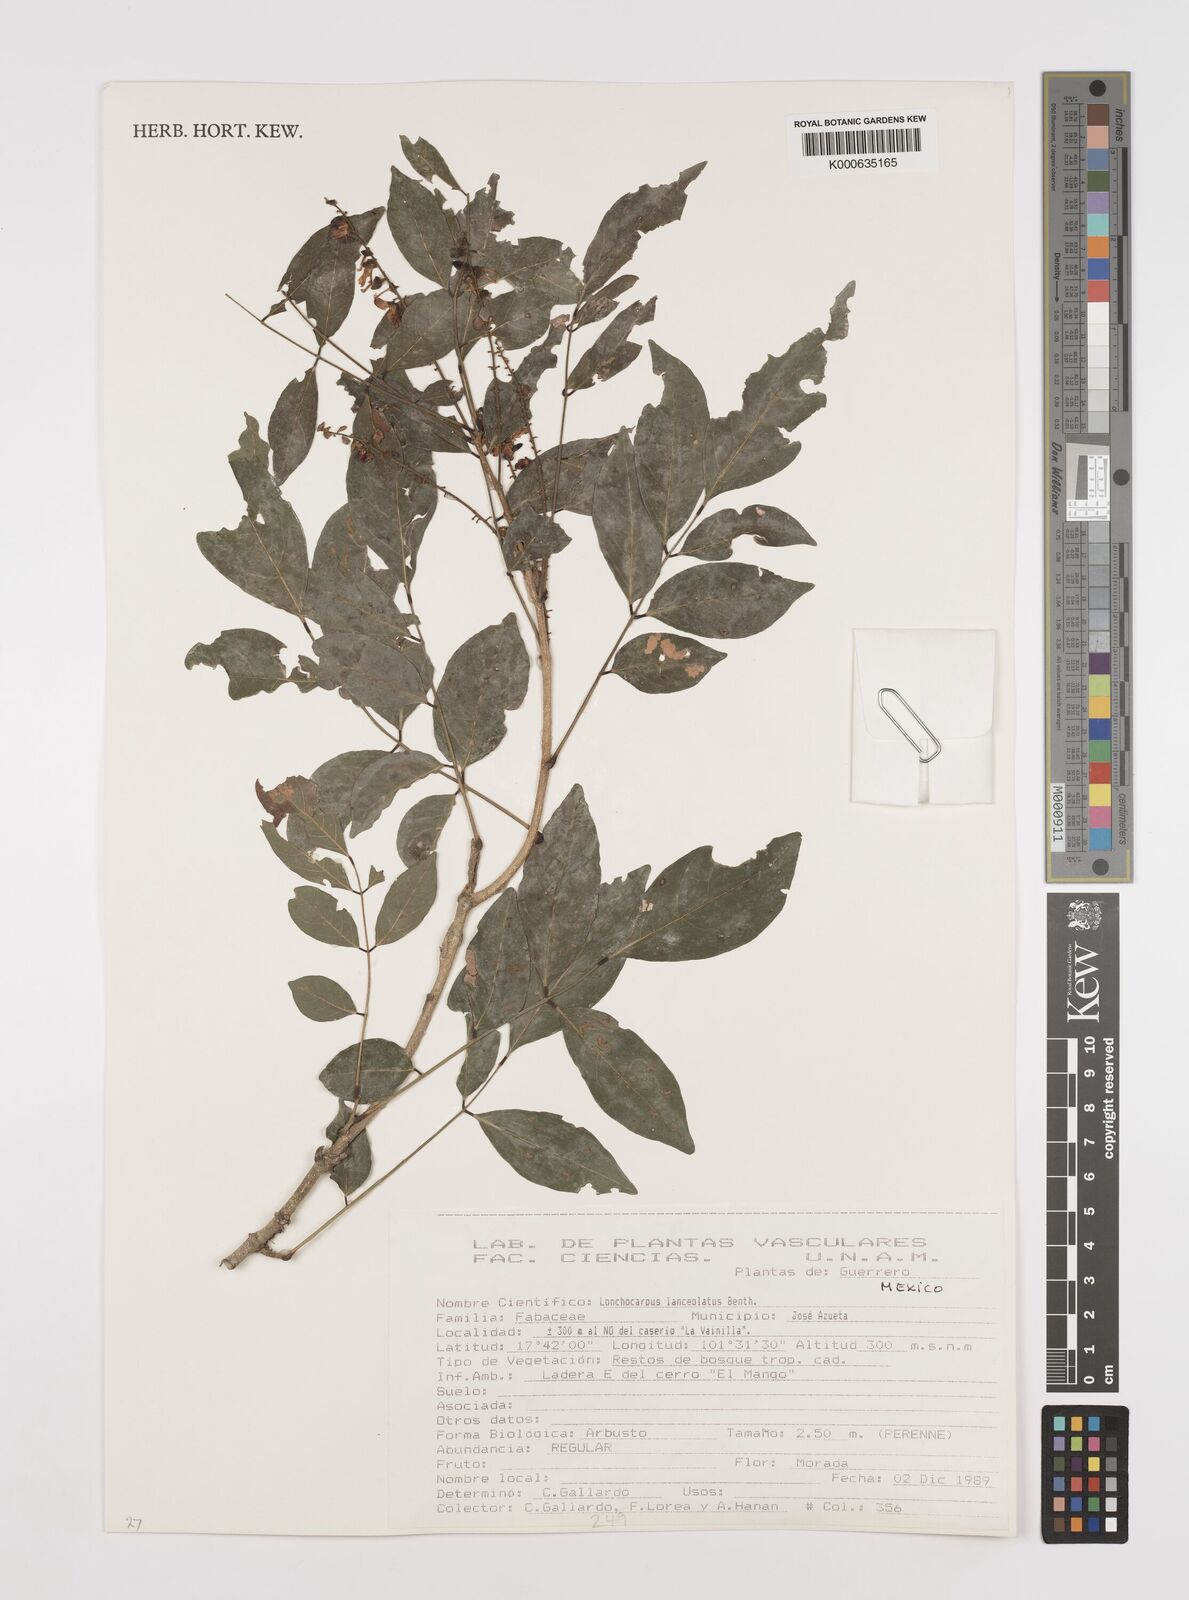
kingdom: Plantae
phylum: Tracheophyta
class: Magnoliopsida
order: Fabales
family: Fabaceae
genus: Lonchocarpus
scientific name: Lonchocarpus lanceolatus
